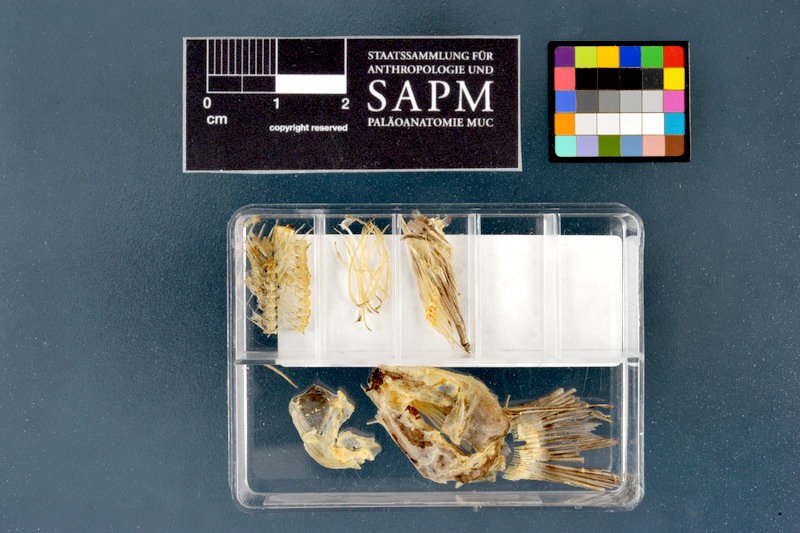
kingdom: Animalia
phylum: Chordata
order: Cypriniformes
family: Cyprinidae
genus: Barbus
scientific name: Barbus meridionalis
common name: Mediterranean barbel
